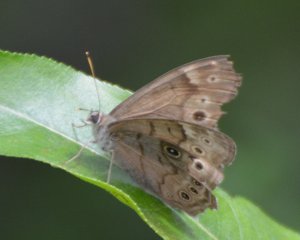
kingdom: Animalia
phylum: Arthropoda
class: Insecta
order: Lepidoptera
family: Nymphalidae
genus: Lethe
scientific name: Lethe anthedon
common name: Northern Pearly-Eye
